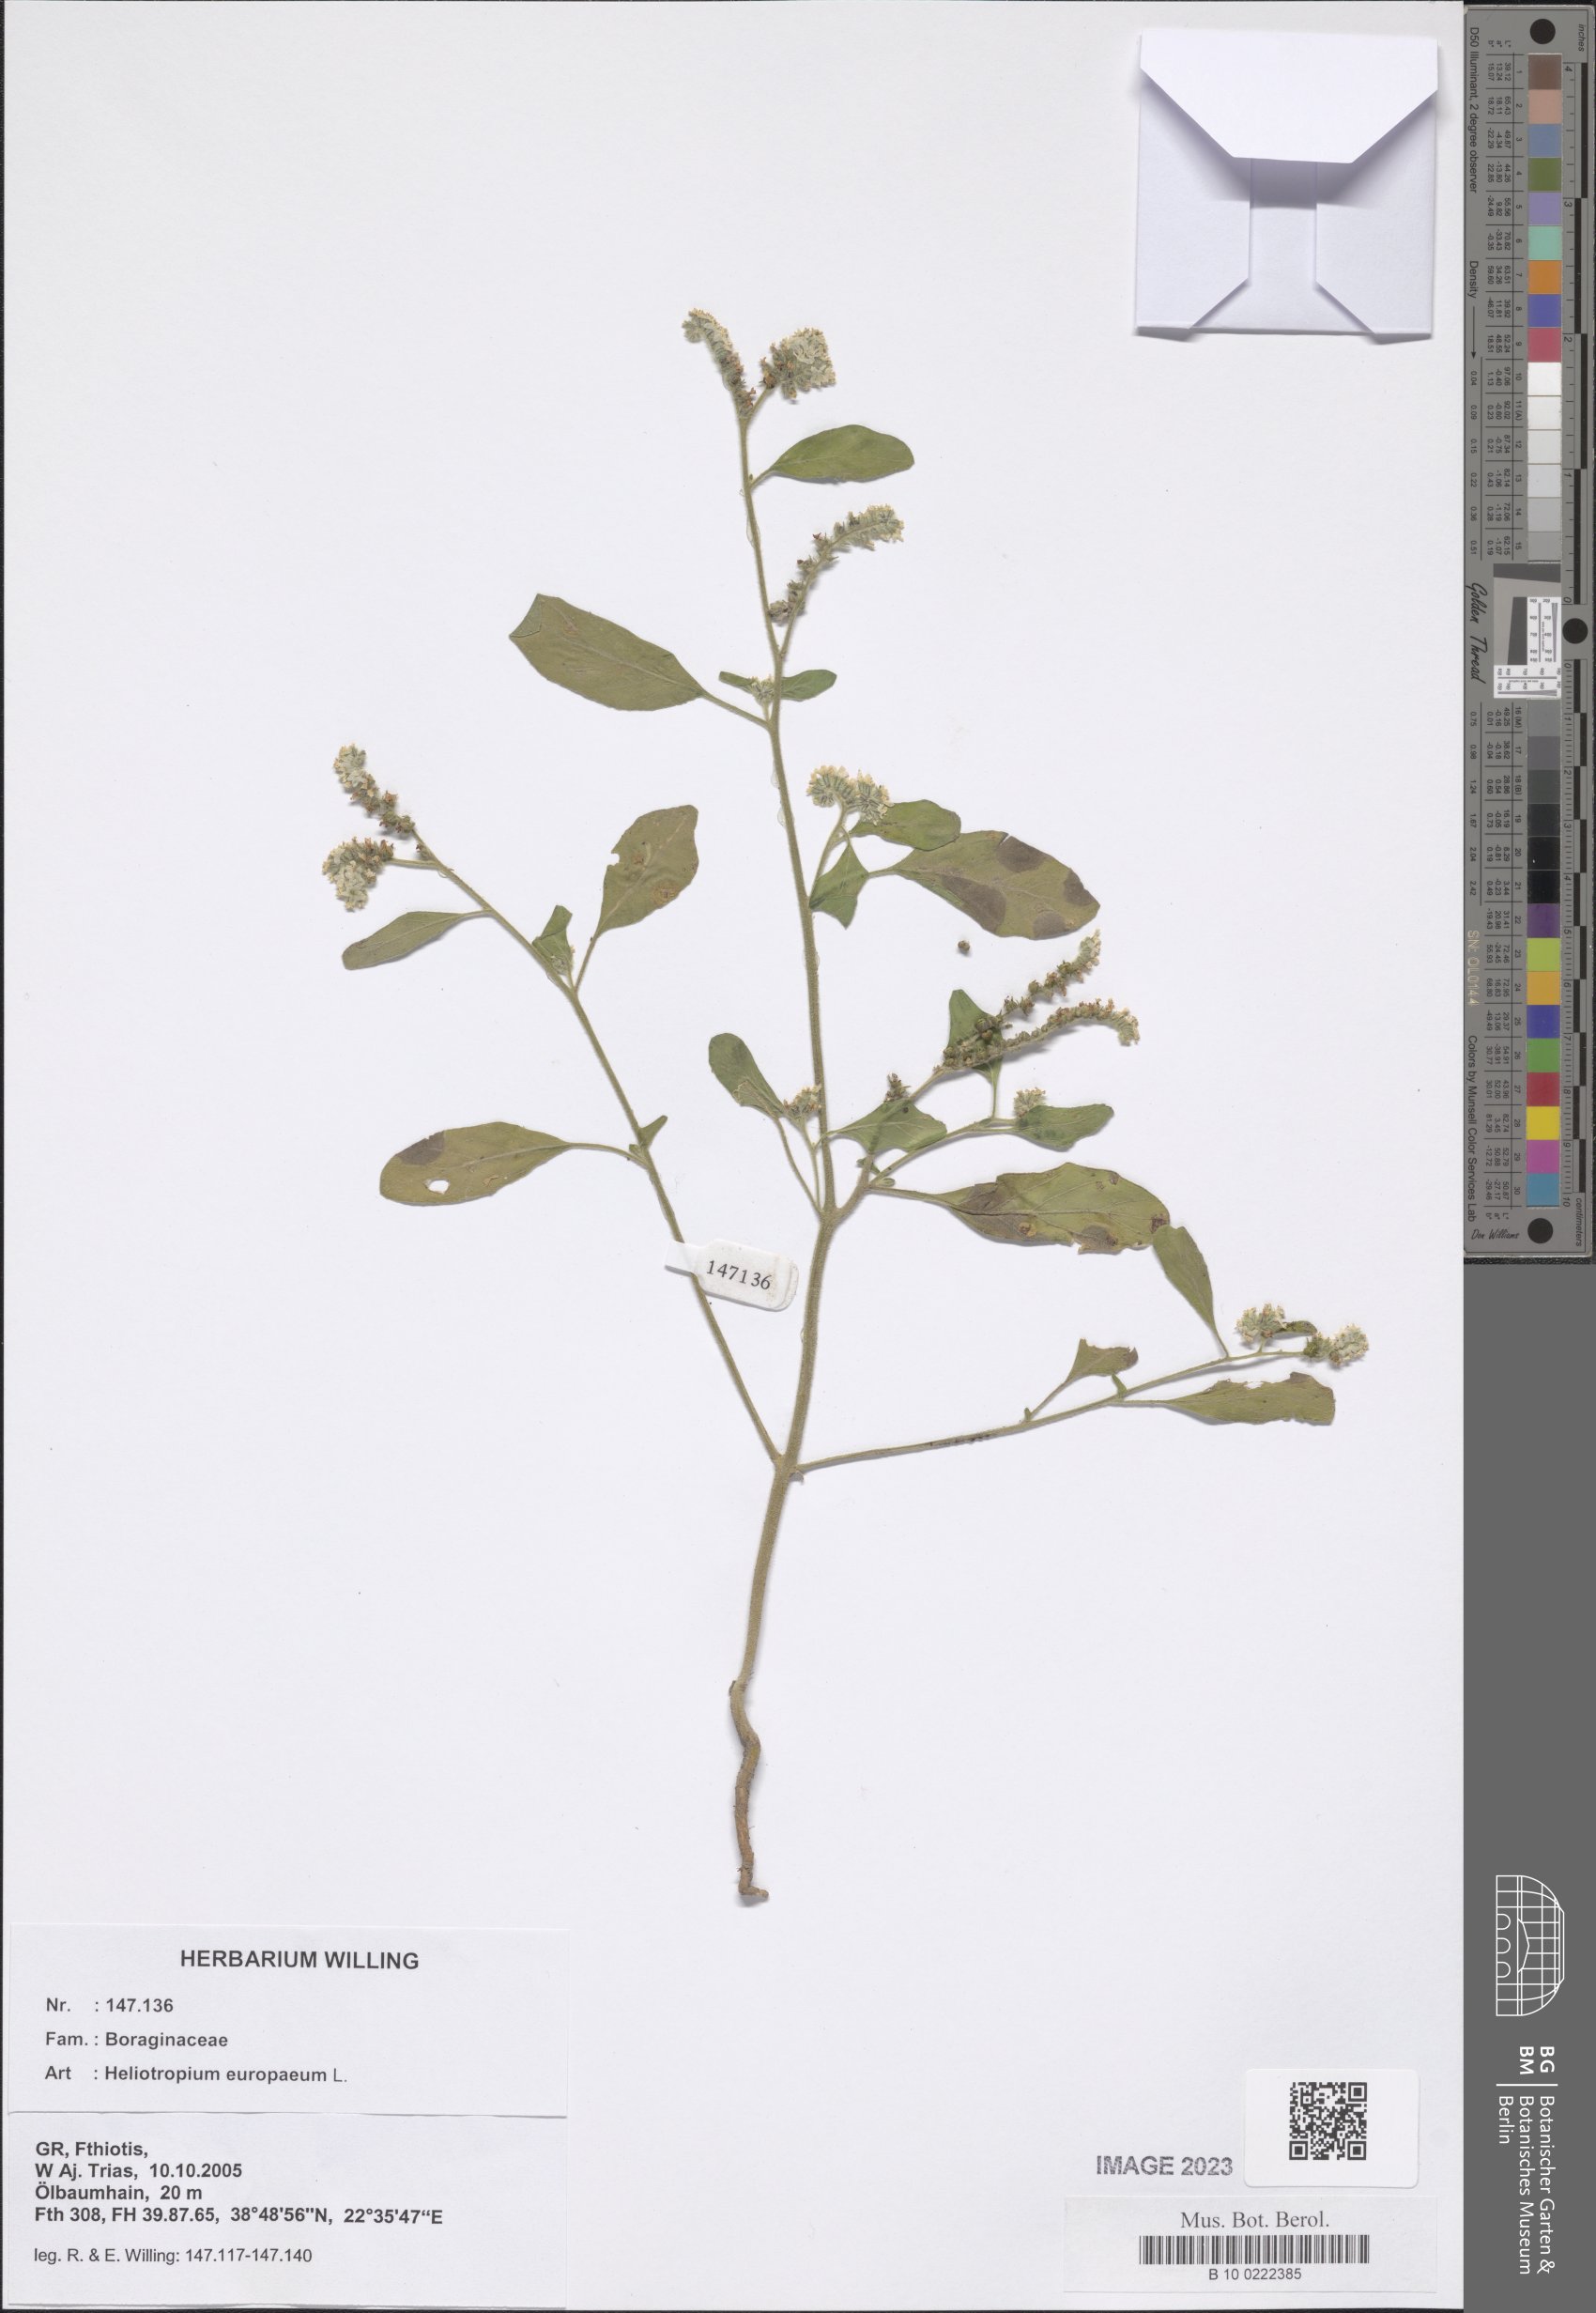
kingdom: Plantae
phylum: Tracheophyta
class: Magnoliopsida
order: Boraginales
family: Heliotropiaceae
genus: Heliotropium
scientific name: Heliotropium europaeum
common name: European heliotrope
